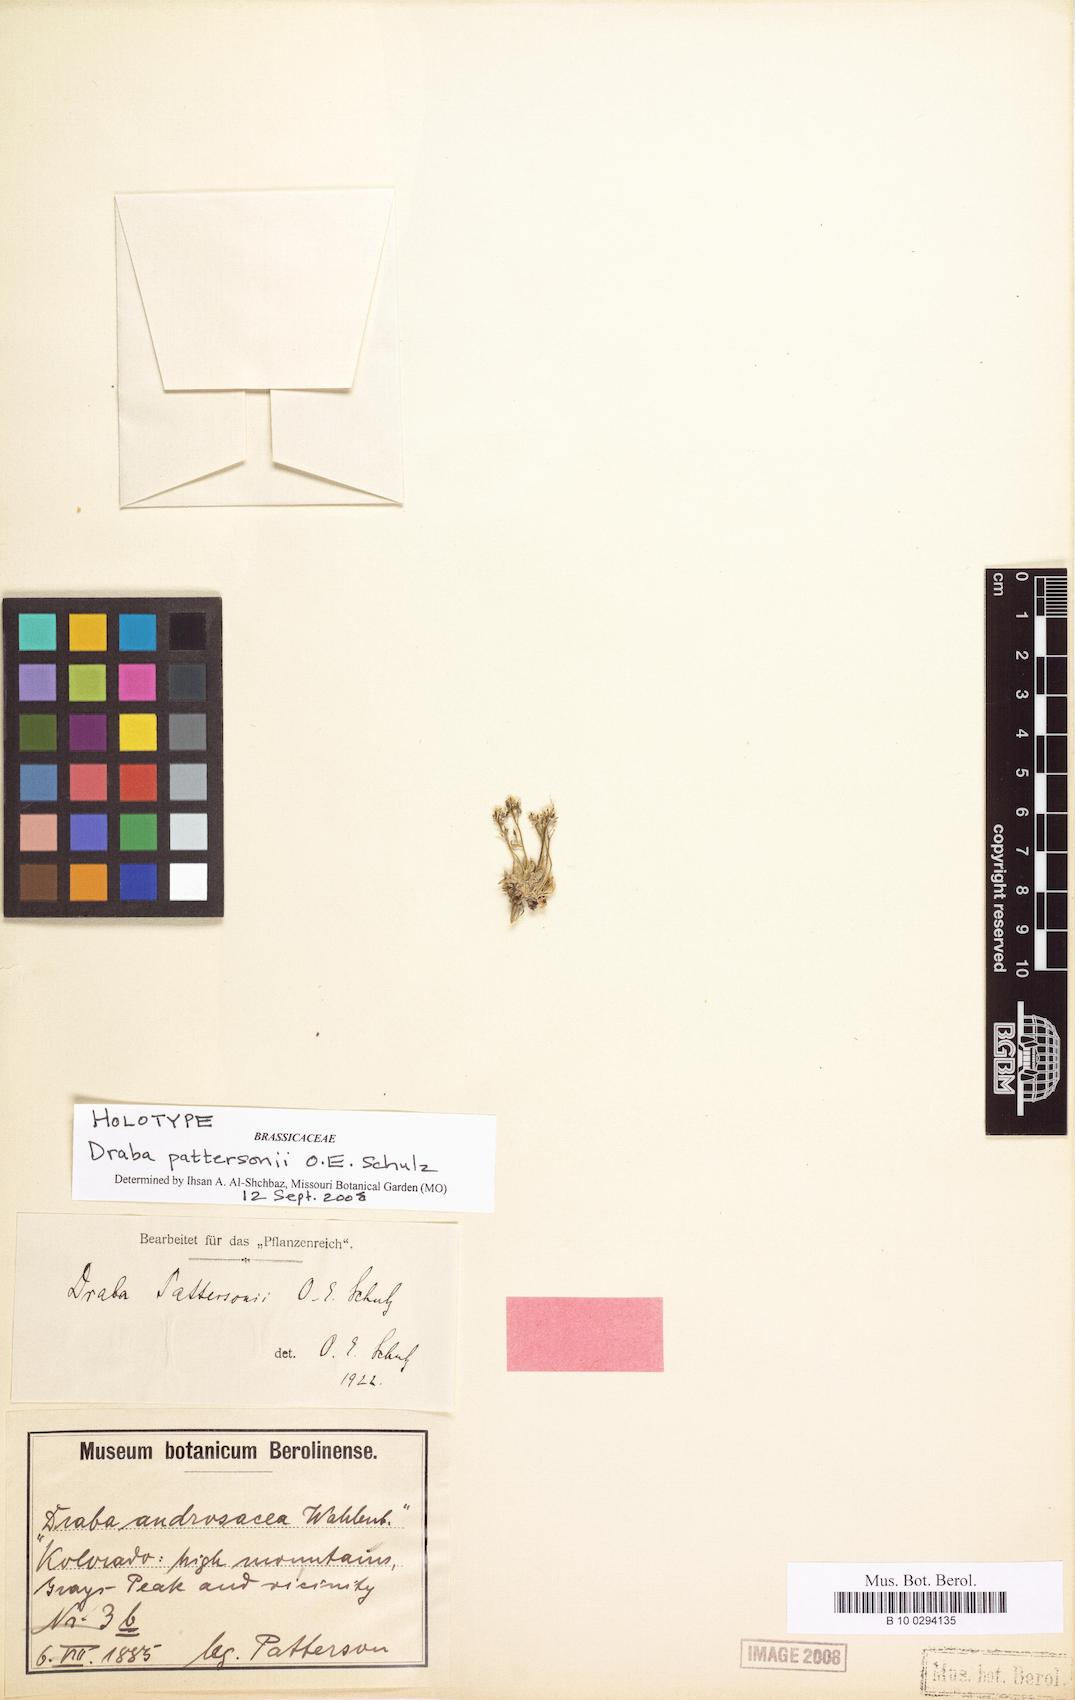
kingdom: Plantae
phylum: Tracheophyta
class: Magnoliopsida
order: Brassicales
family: Brassicaceae
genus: Draba
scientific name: Draba fladnizensis
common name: Austrian draba
